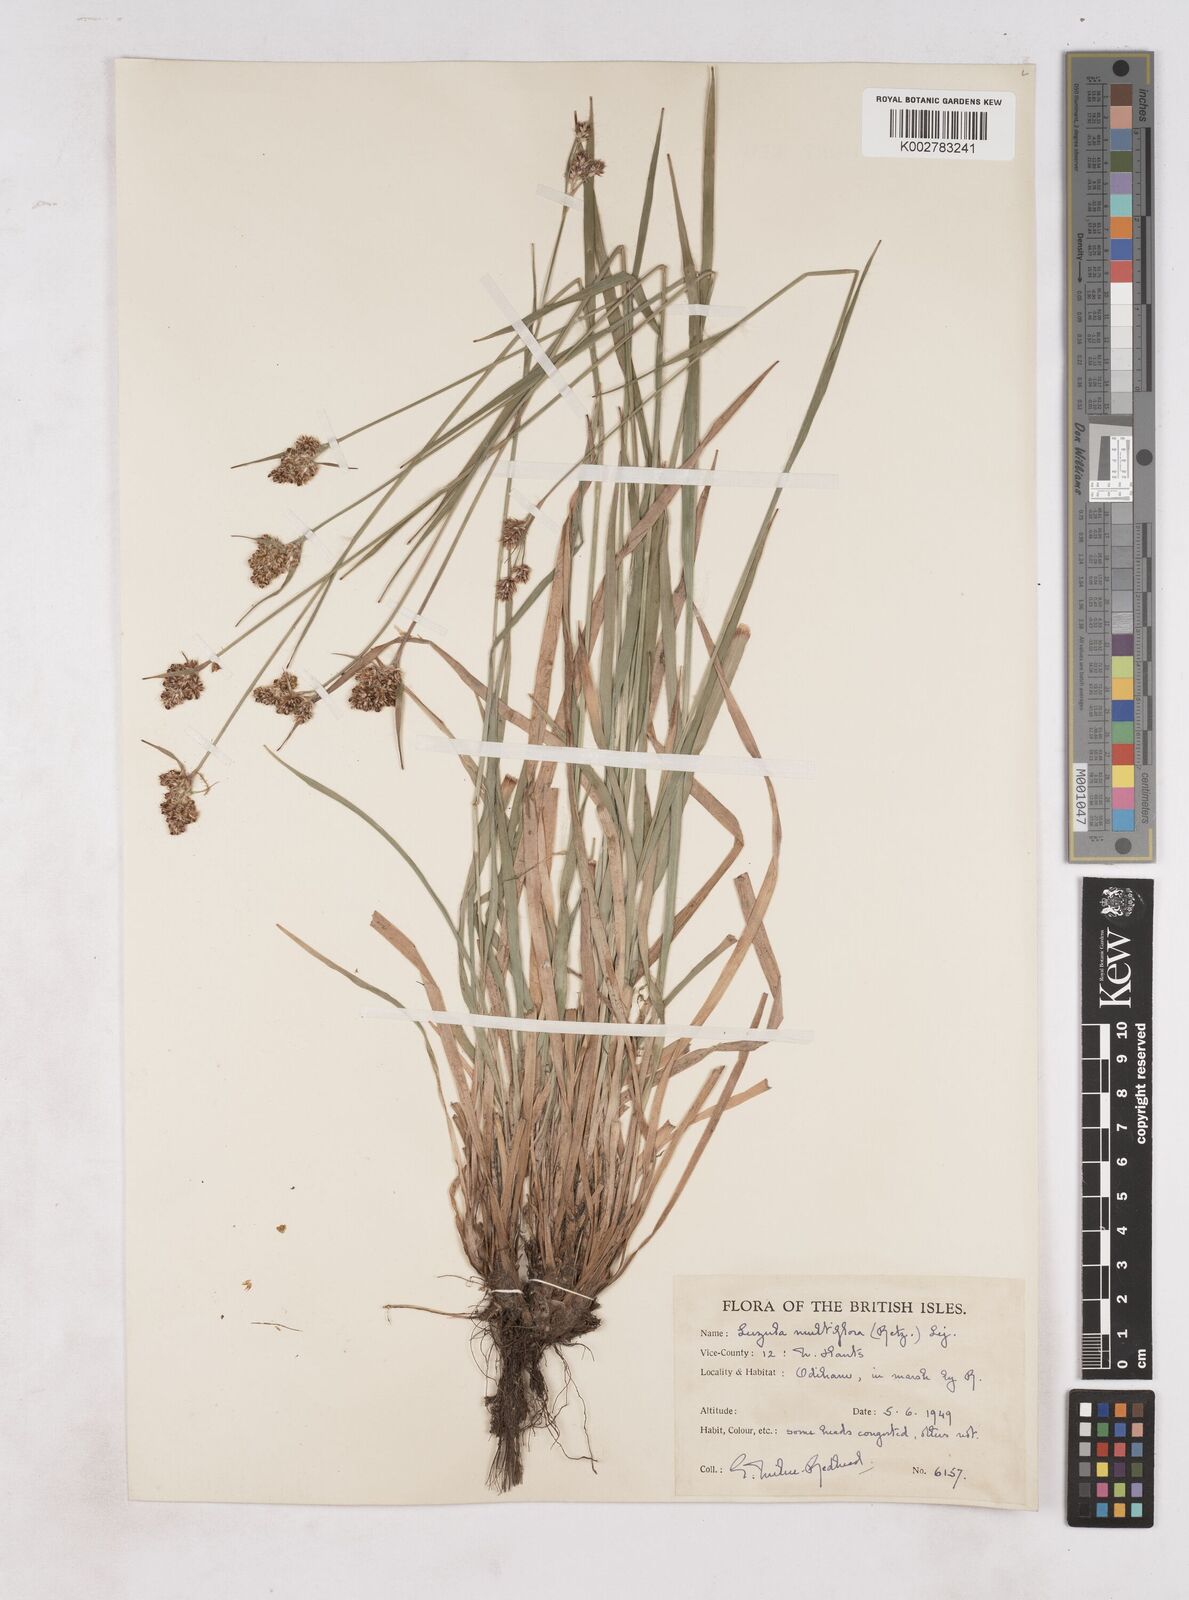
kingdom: Plantae
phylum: Tracheophyta
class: Liliopsida
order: Poales
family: Juncaceae
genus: Luzula
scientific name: Luzula multiflora
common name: Heath wood-rush
